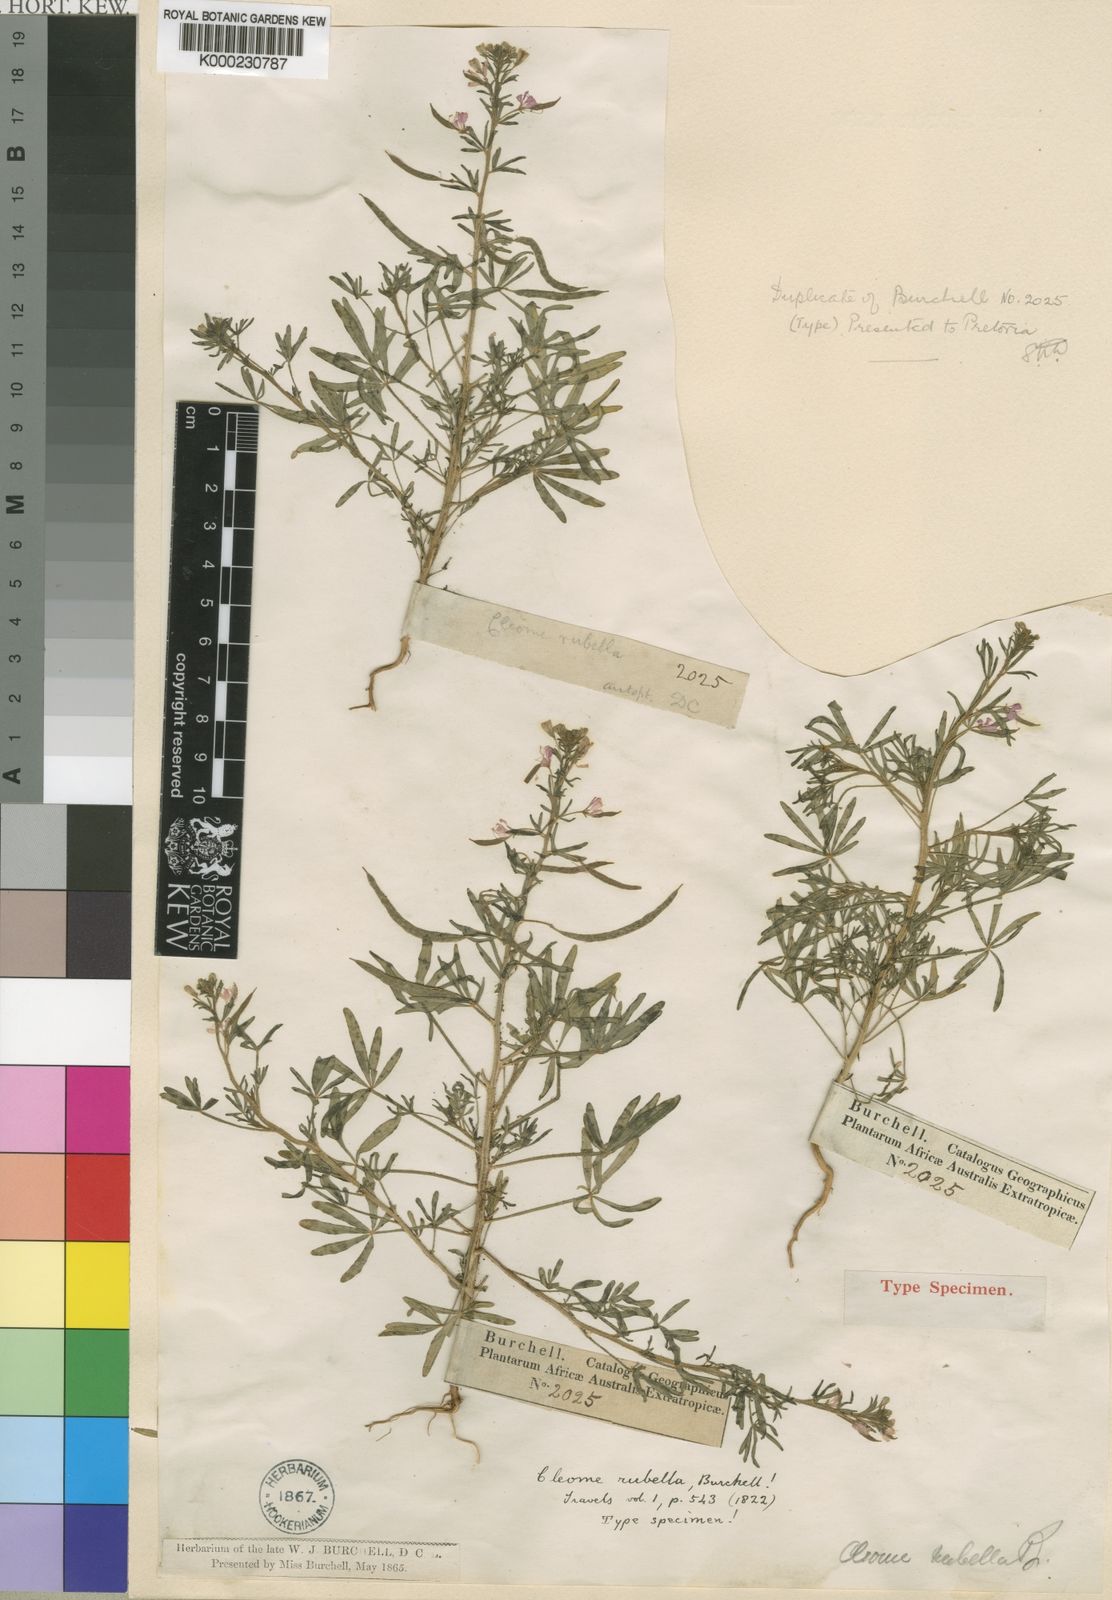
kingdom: Plantae
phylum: Tracheophyta
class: Magnoliopsida
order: Brassicales
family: Cleomaceae
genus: Sieruela
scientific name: Sieruela rubella
